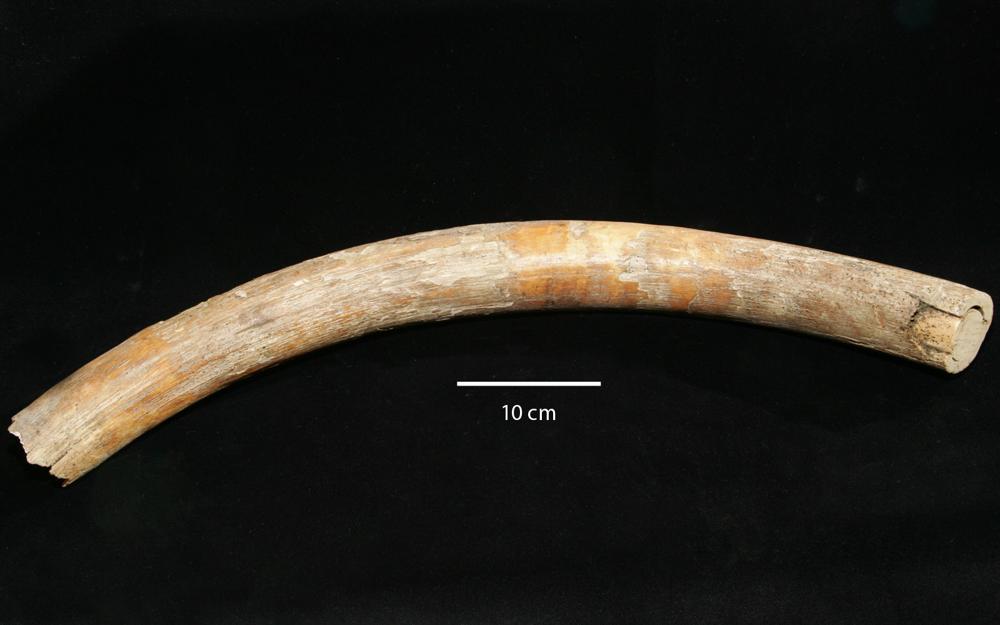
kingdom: Animalia
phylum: Chordata
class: Mammalia
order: Proboscidea
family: Elephantidae
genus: Mammuthus
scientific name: Mammuthus primigenius
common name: Wooly mammoth
